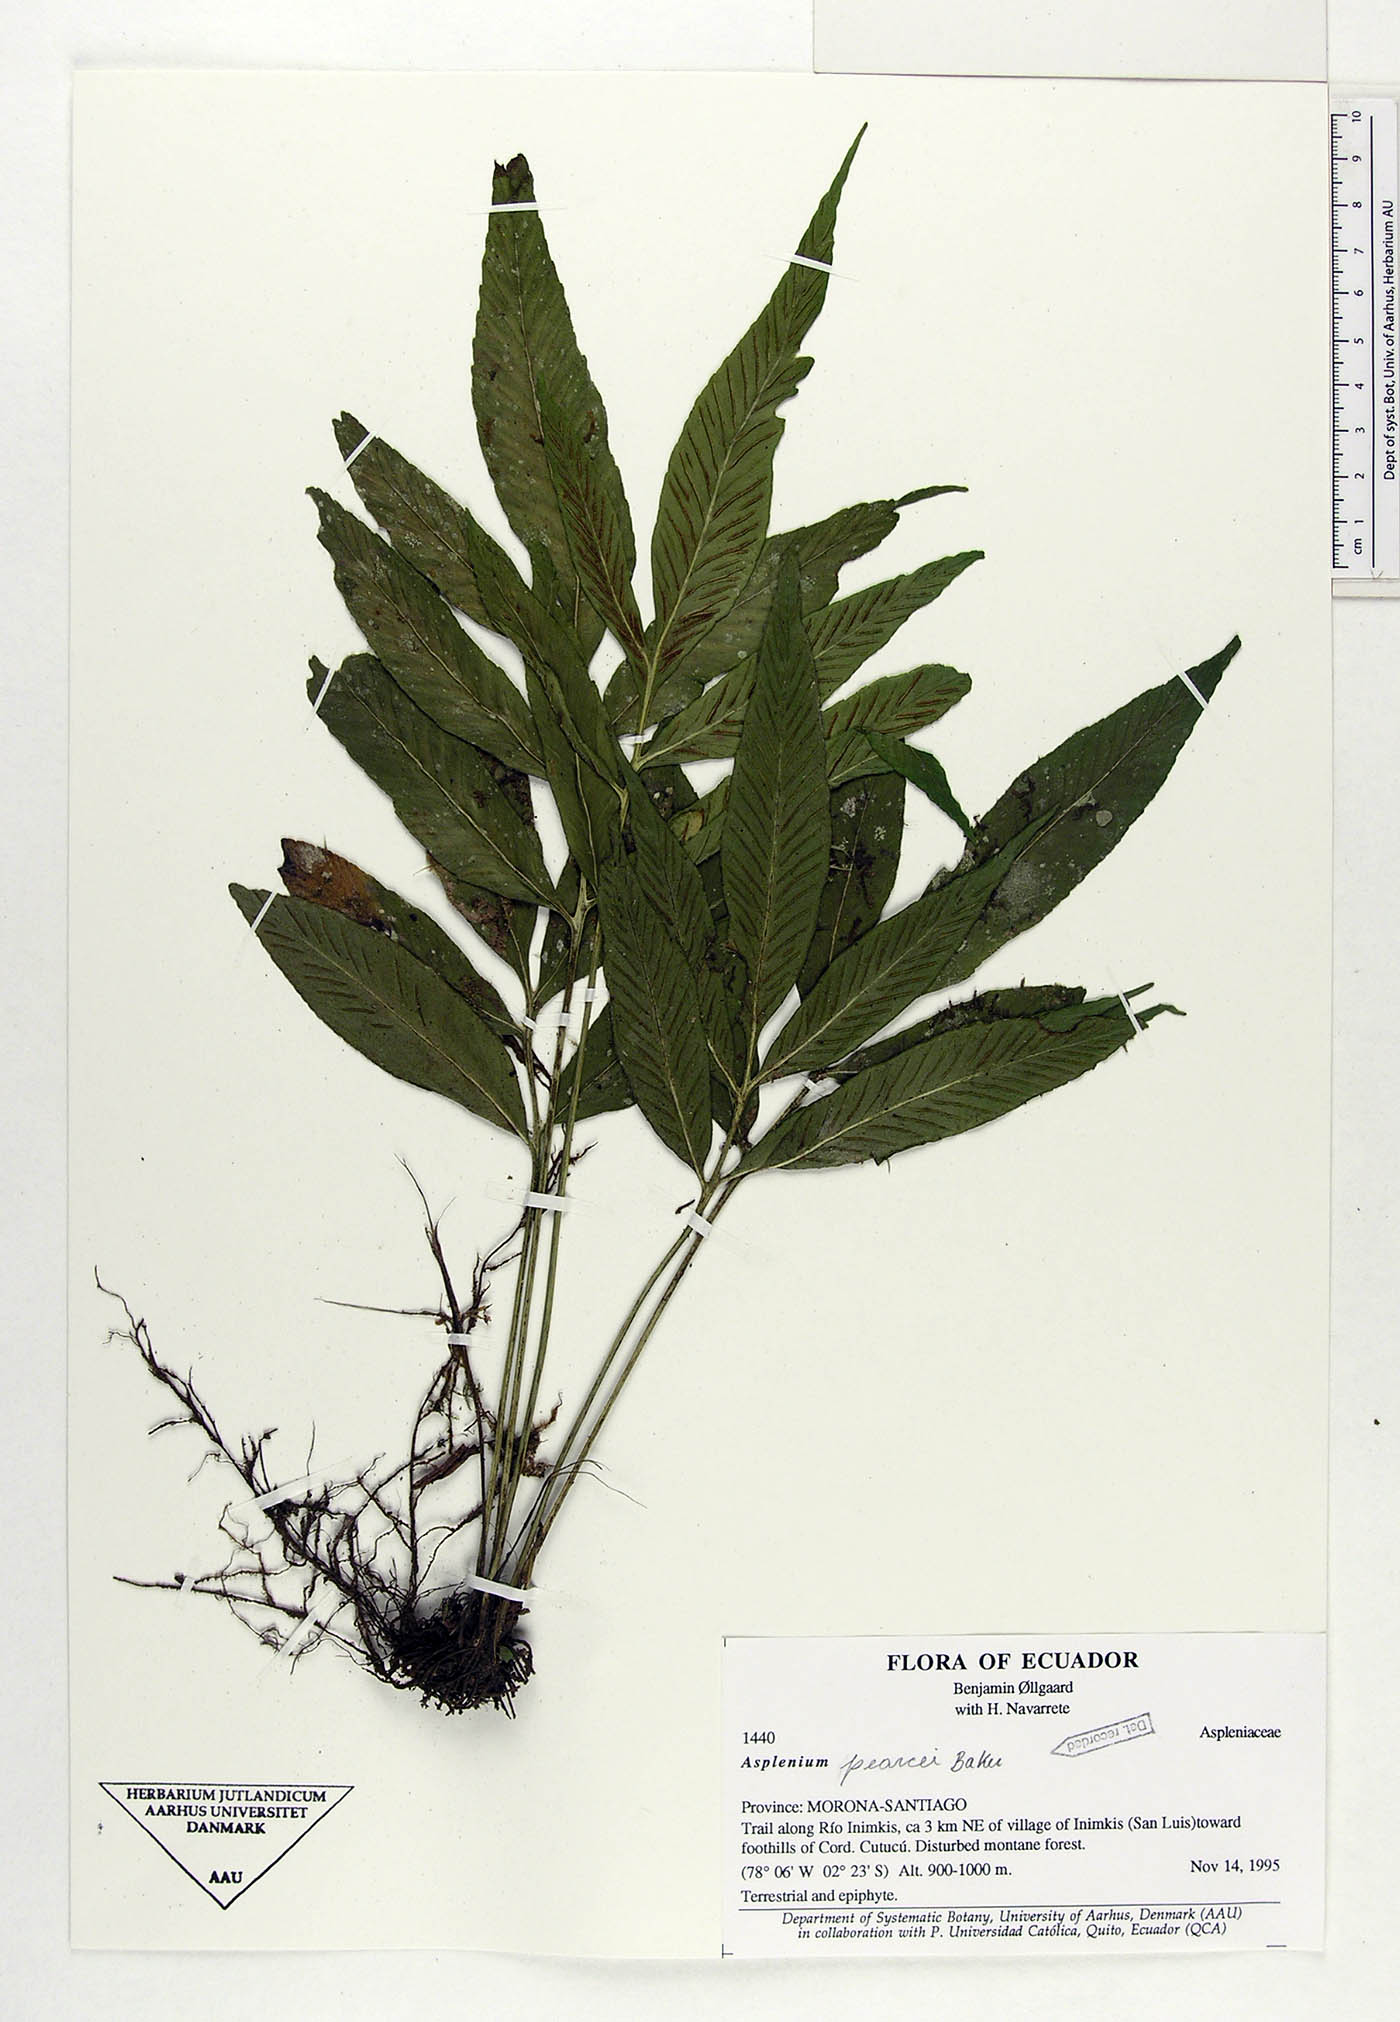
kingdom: Plantae
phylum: Tracheophyta
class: Polypodiopsida
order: Polypodiales
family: Aspleniaceae
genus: Asplenium
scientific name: Asplenium pearcei
